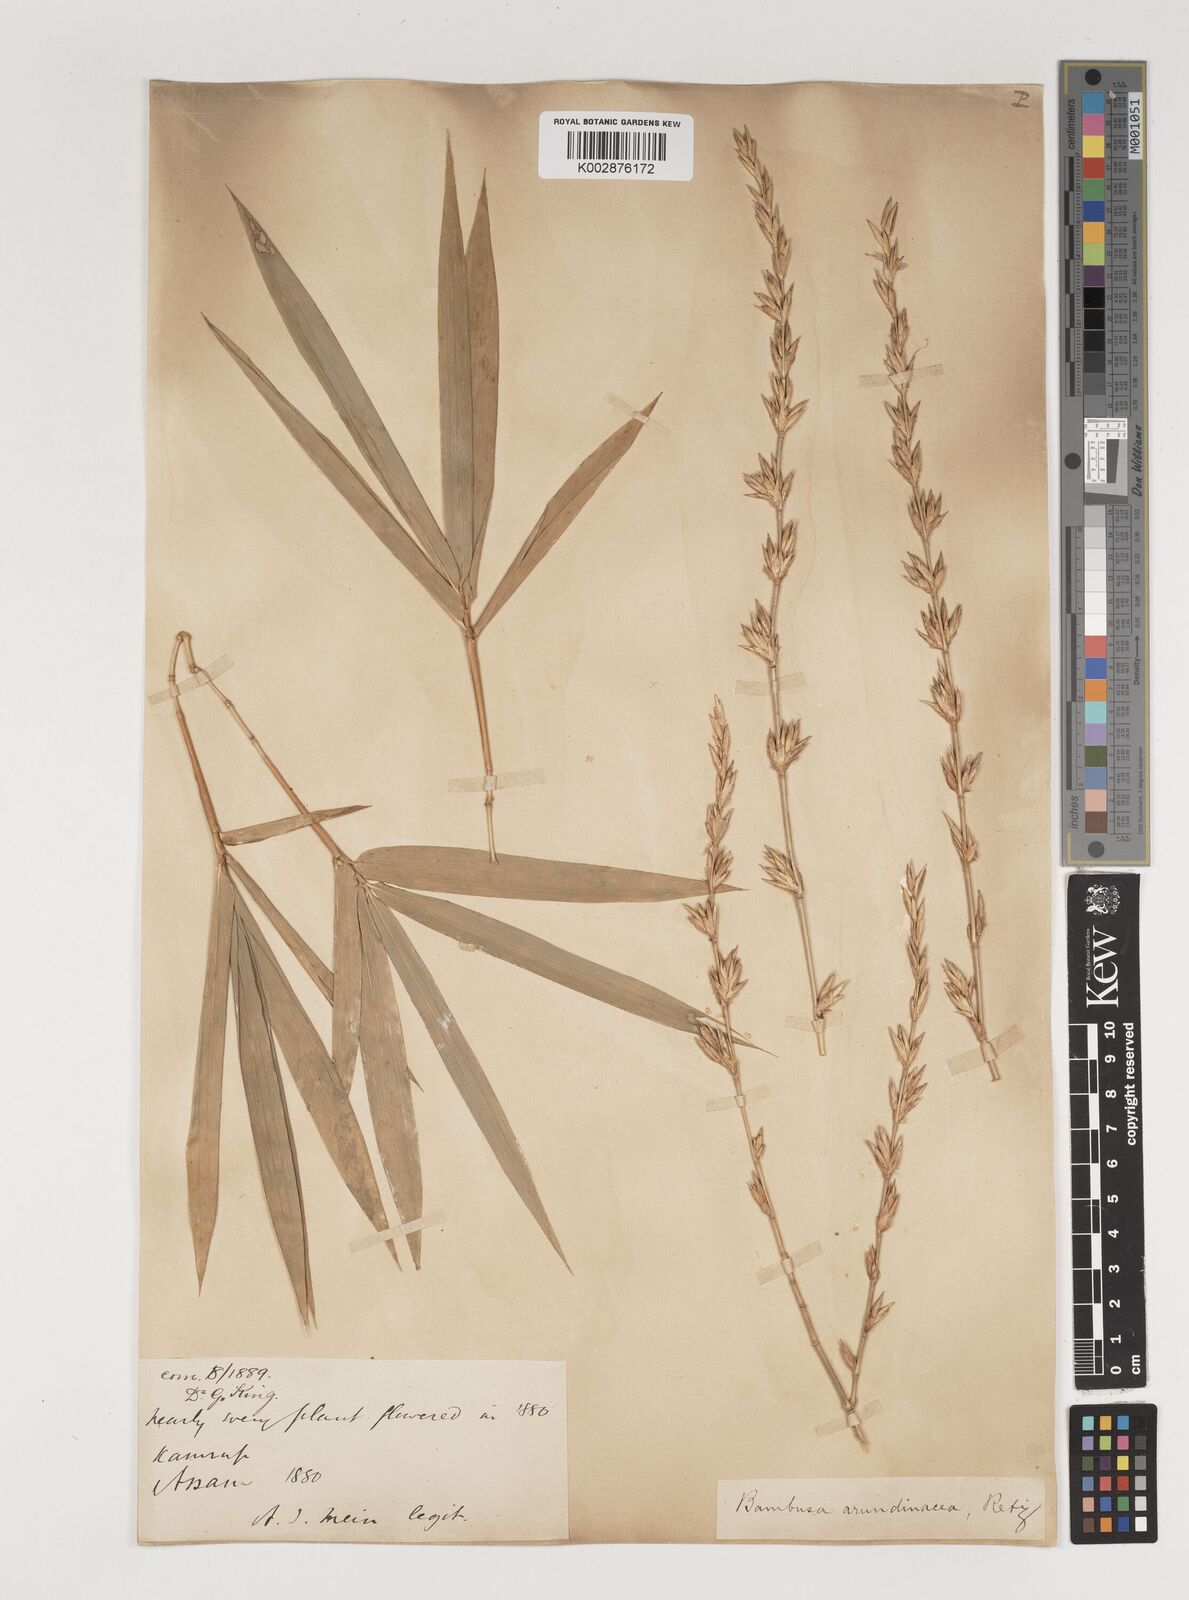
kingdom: Plantae
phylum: Tracheophyta
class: Liliopsida
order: Poales
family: Poaceae
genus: Bambusa
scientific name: Bambusa bambos
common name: Indian thorny bamboo
